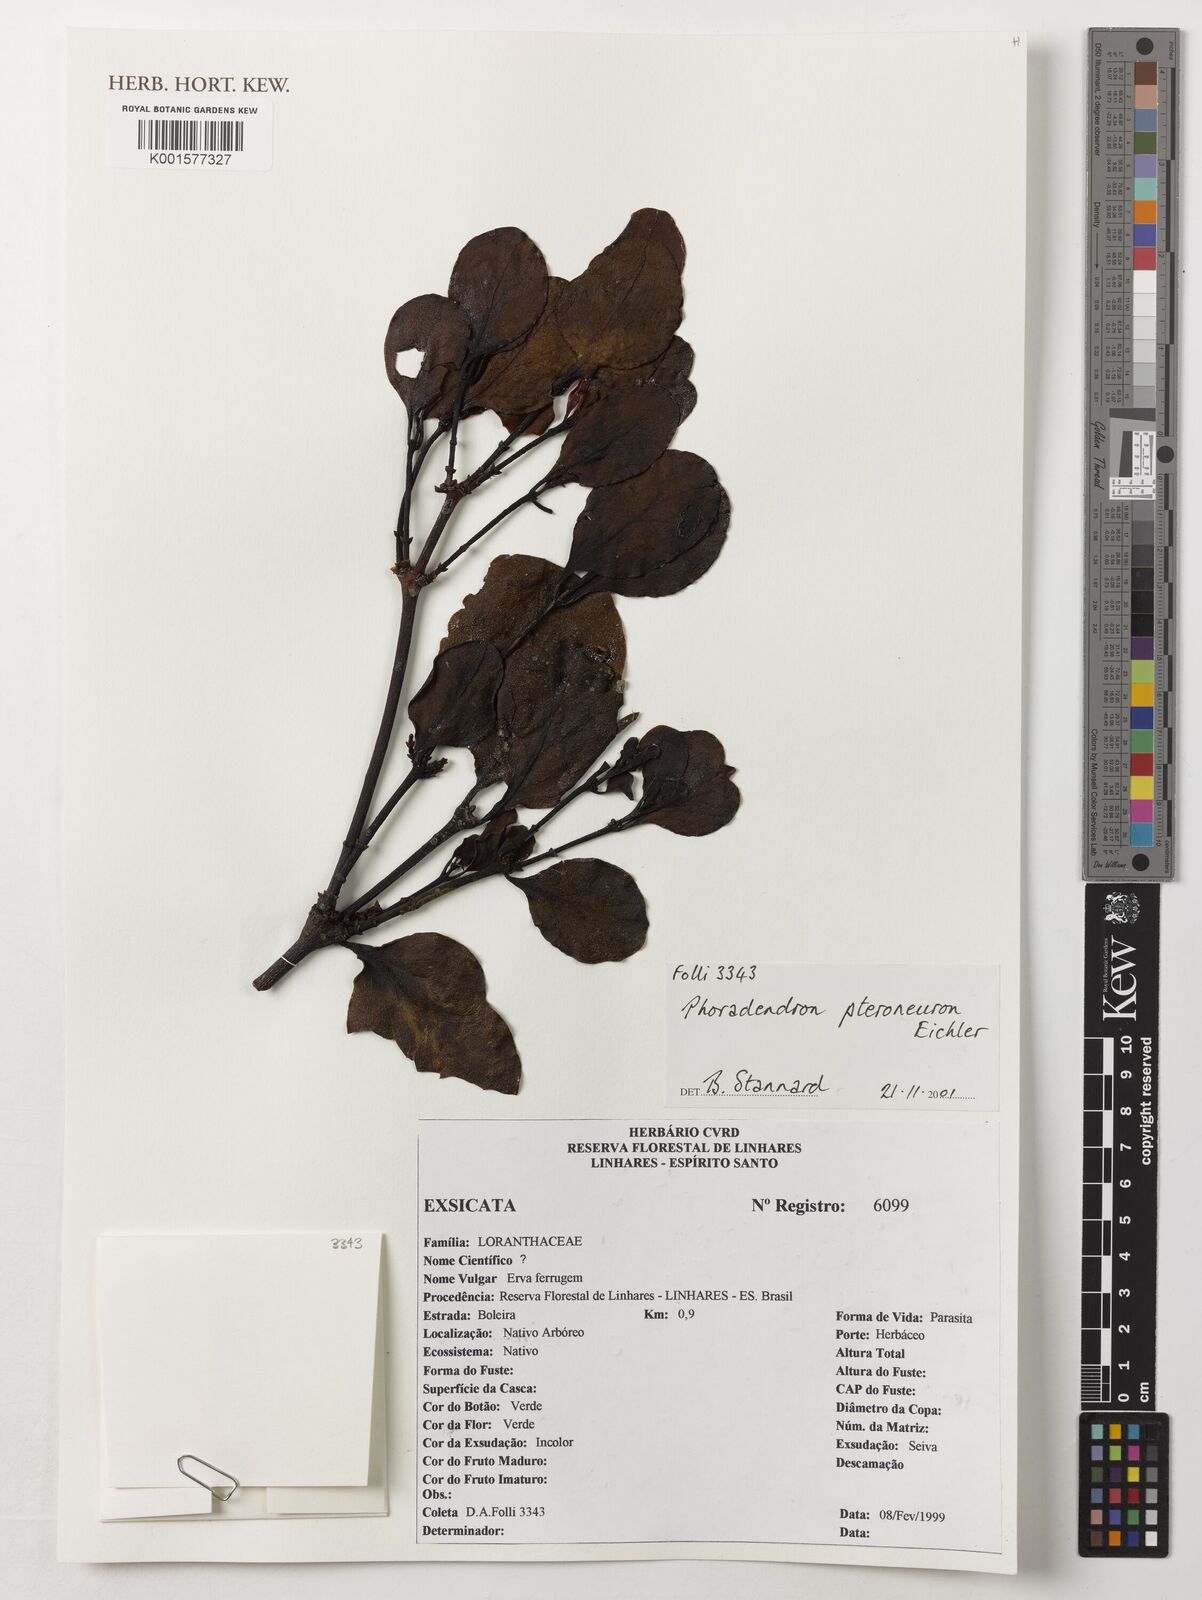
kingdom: Plantae
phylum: Tracheophyta
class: Magnoliopsida
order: Santalales
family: Viscaceae
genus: Phoradendron
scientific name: Phoradendron pteroneuron
